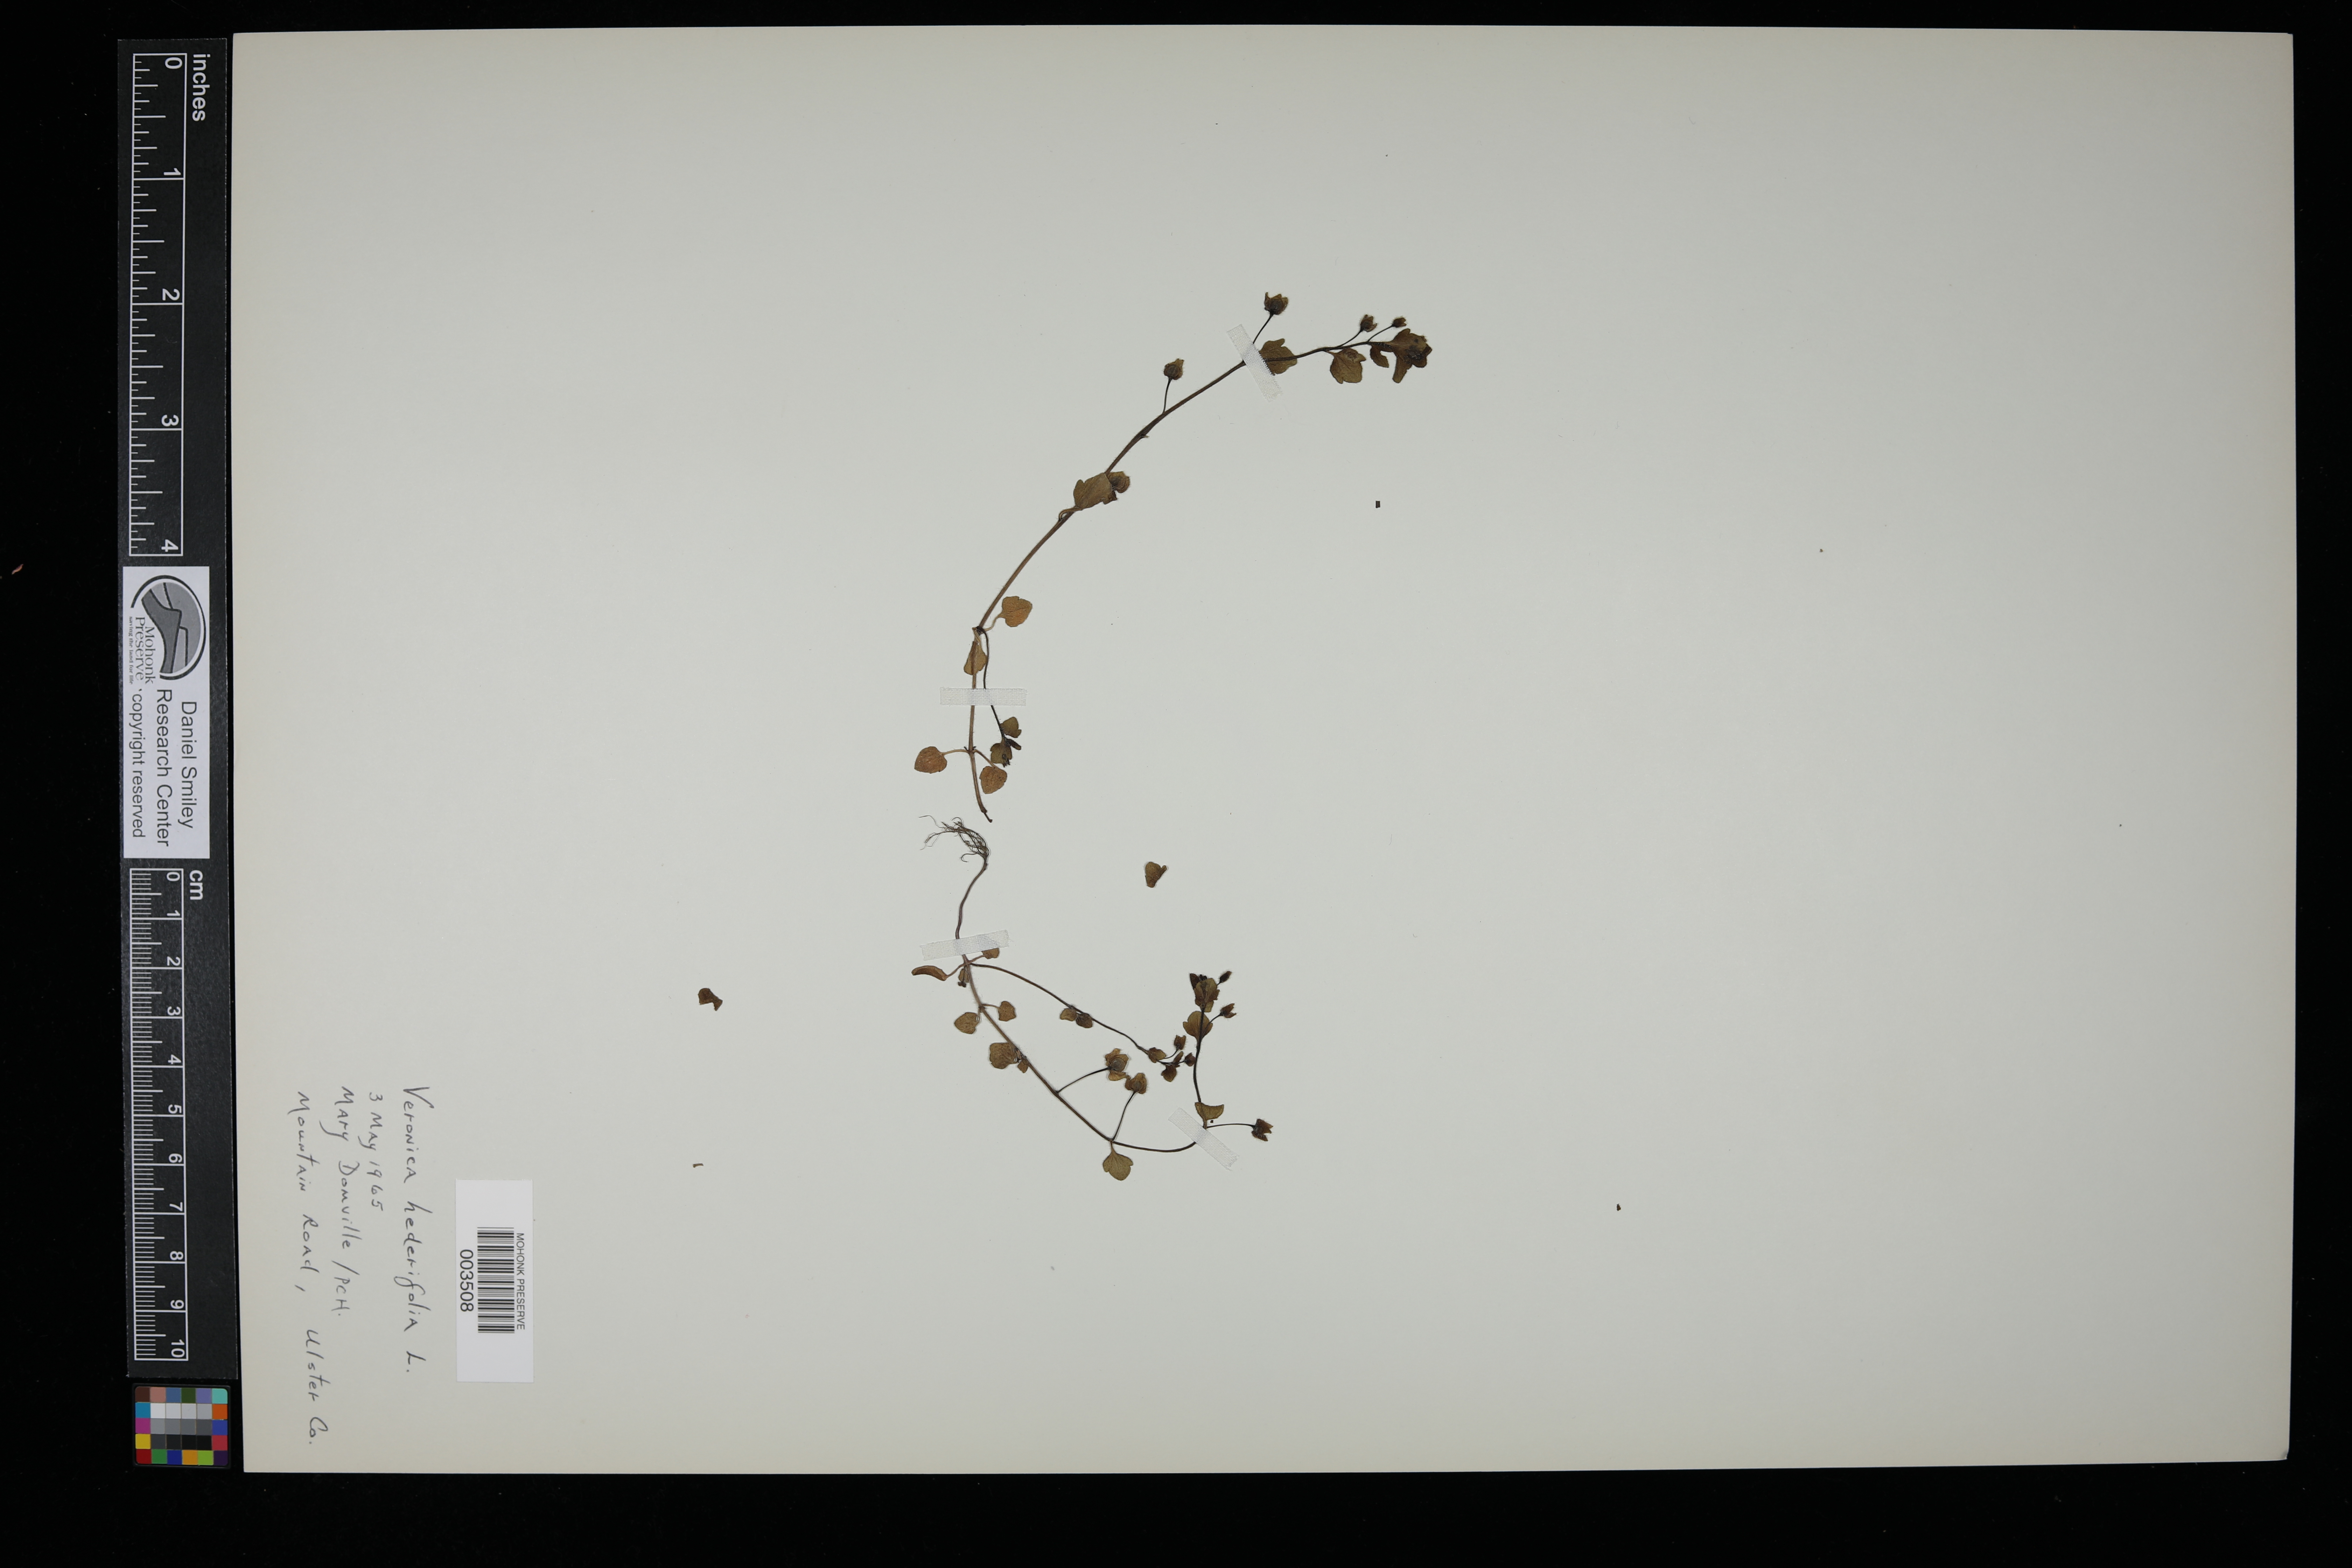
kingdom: Plantae
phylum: Tracheophyta
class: Magnoliopsida
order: Lamiales
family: Plantaginaceae
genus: Veronica
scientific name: Veronica hederifolia
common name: Ivy-leaved speedwell
